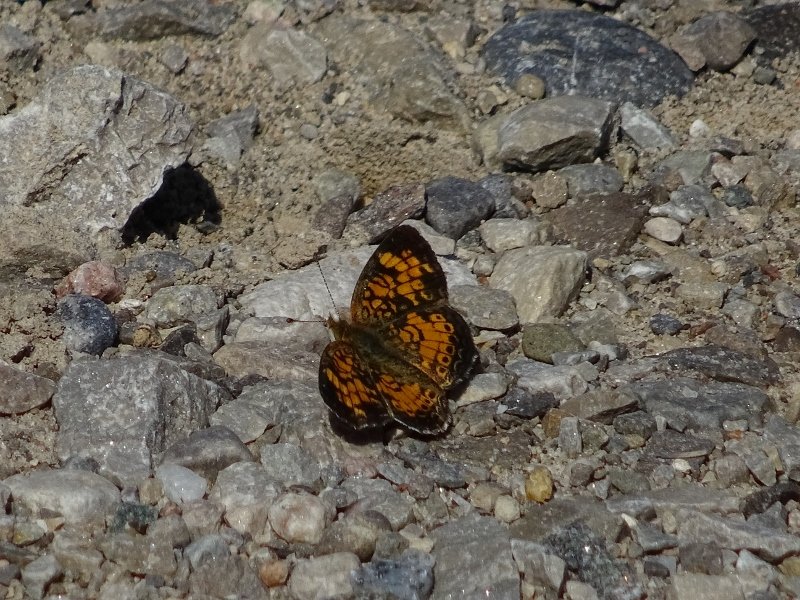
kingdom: Animalia
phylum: Arthropoda
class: Insecta
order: Lepidoptera
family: Nymphalidae
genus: Phyciodes
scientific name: Phyciodes tharos
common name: Pearl Crescent
